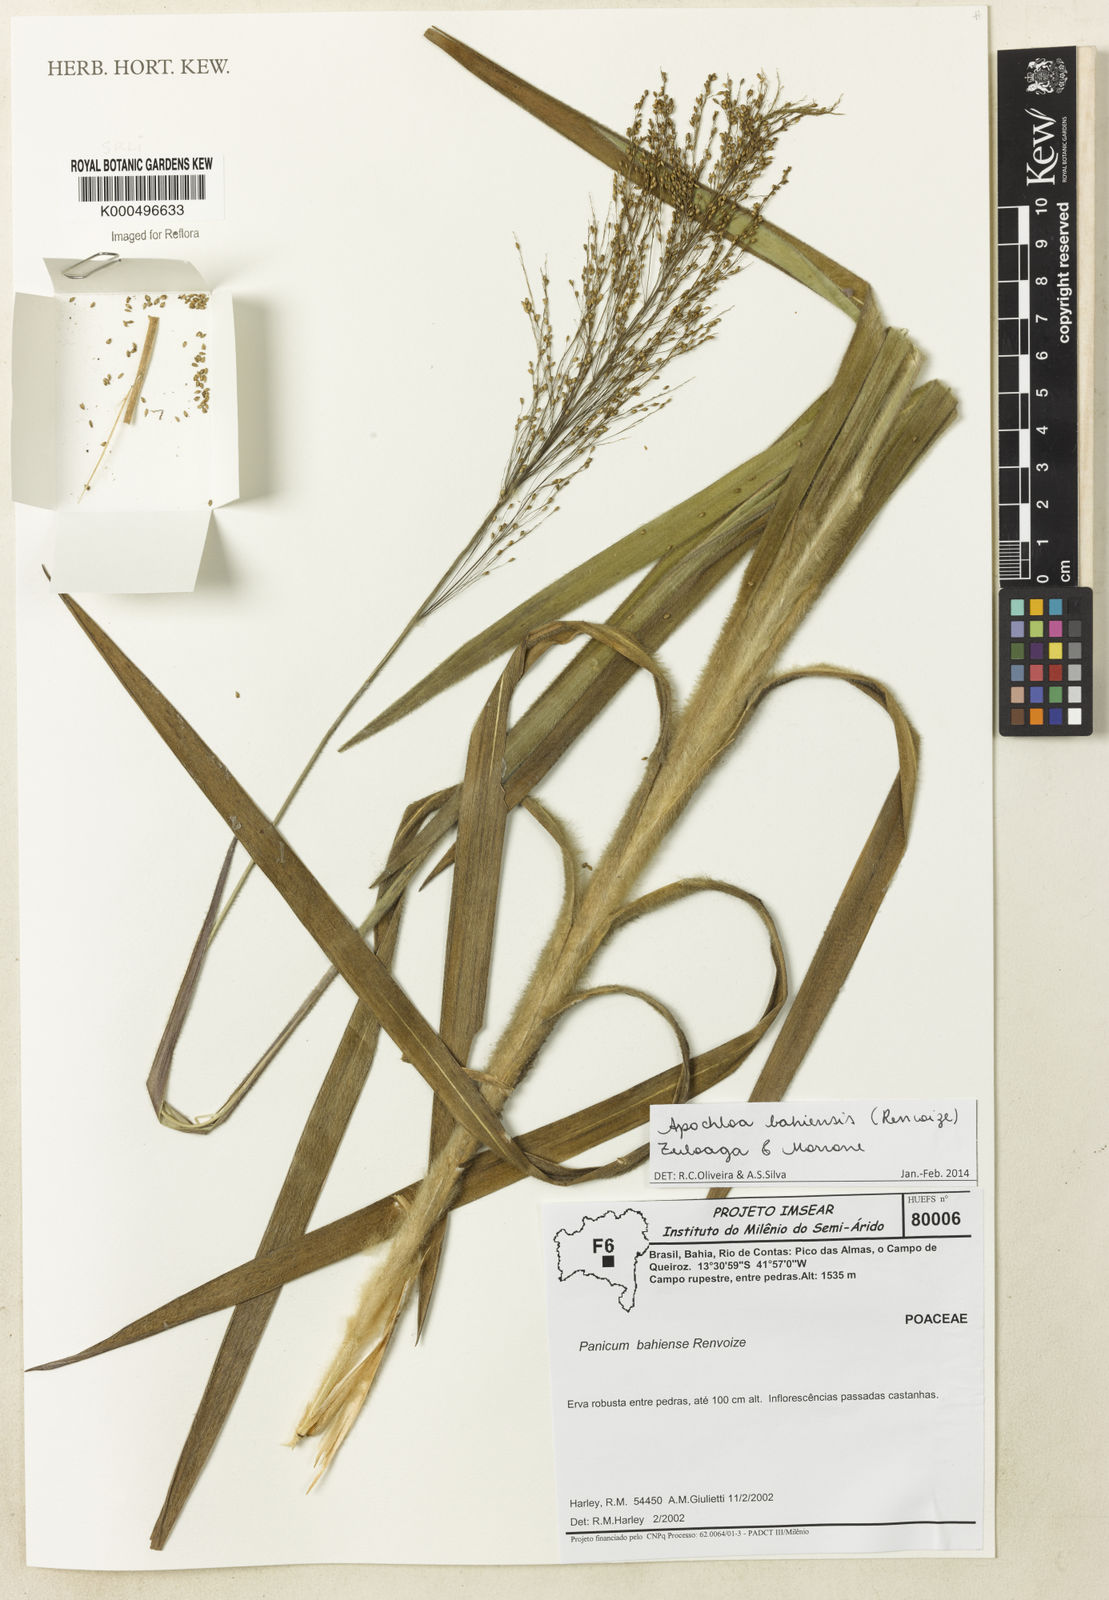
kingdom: Plantae
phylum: Tracheophyta
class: Liliopsida
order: Poales
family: Poaceae
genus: Apochloa
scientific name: Apochloa bahiensis
